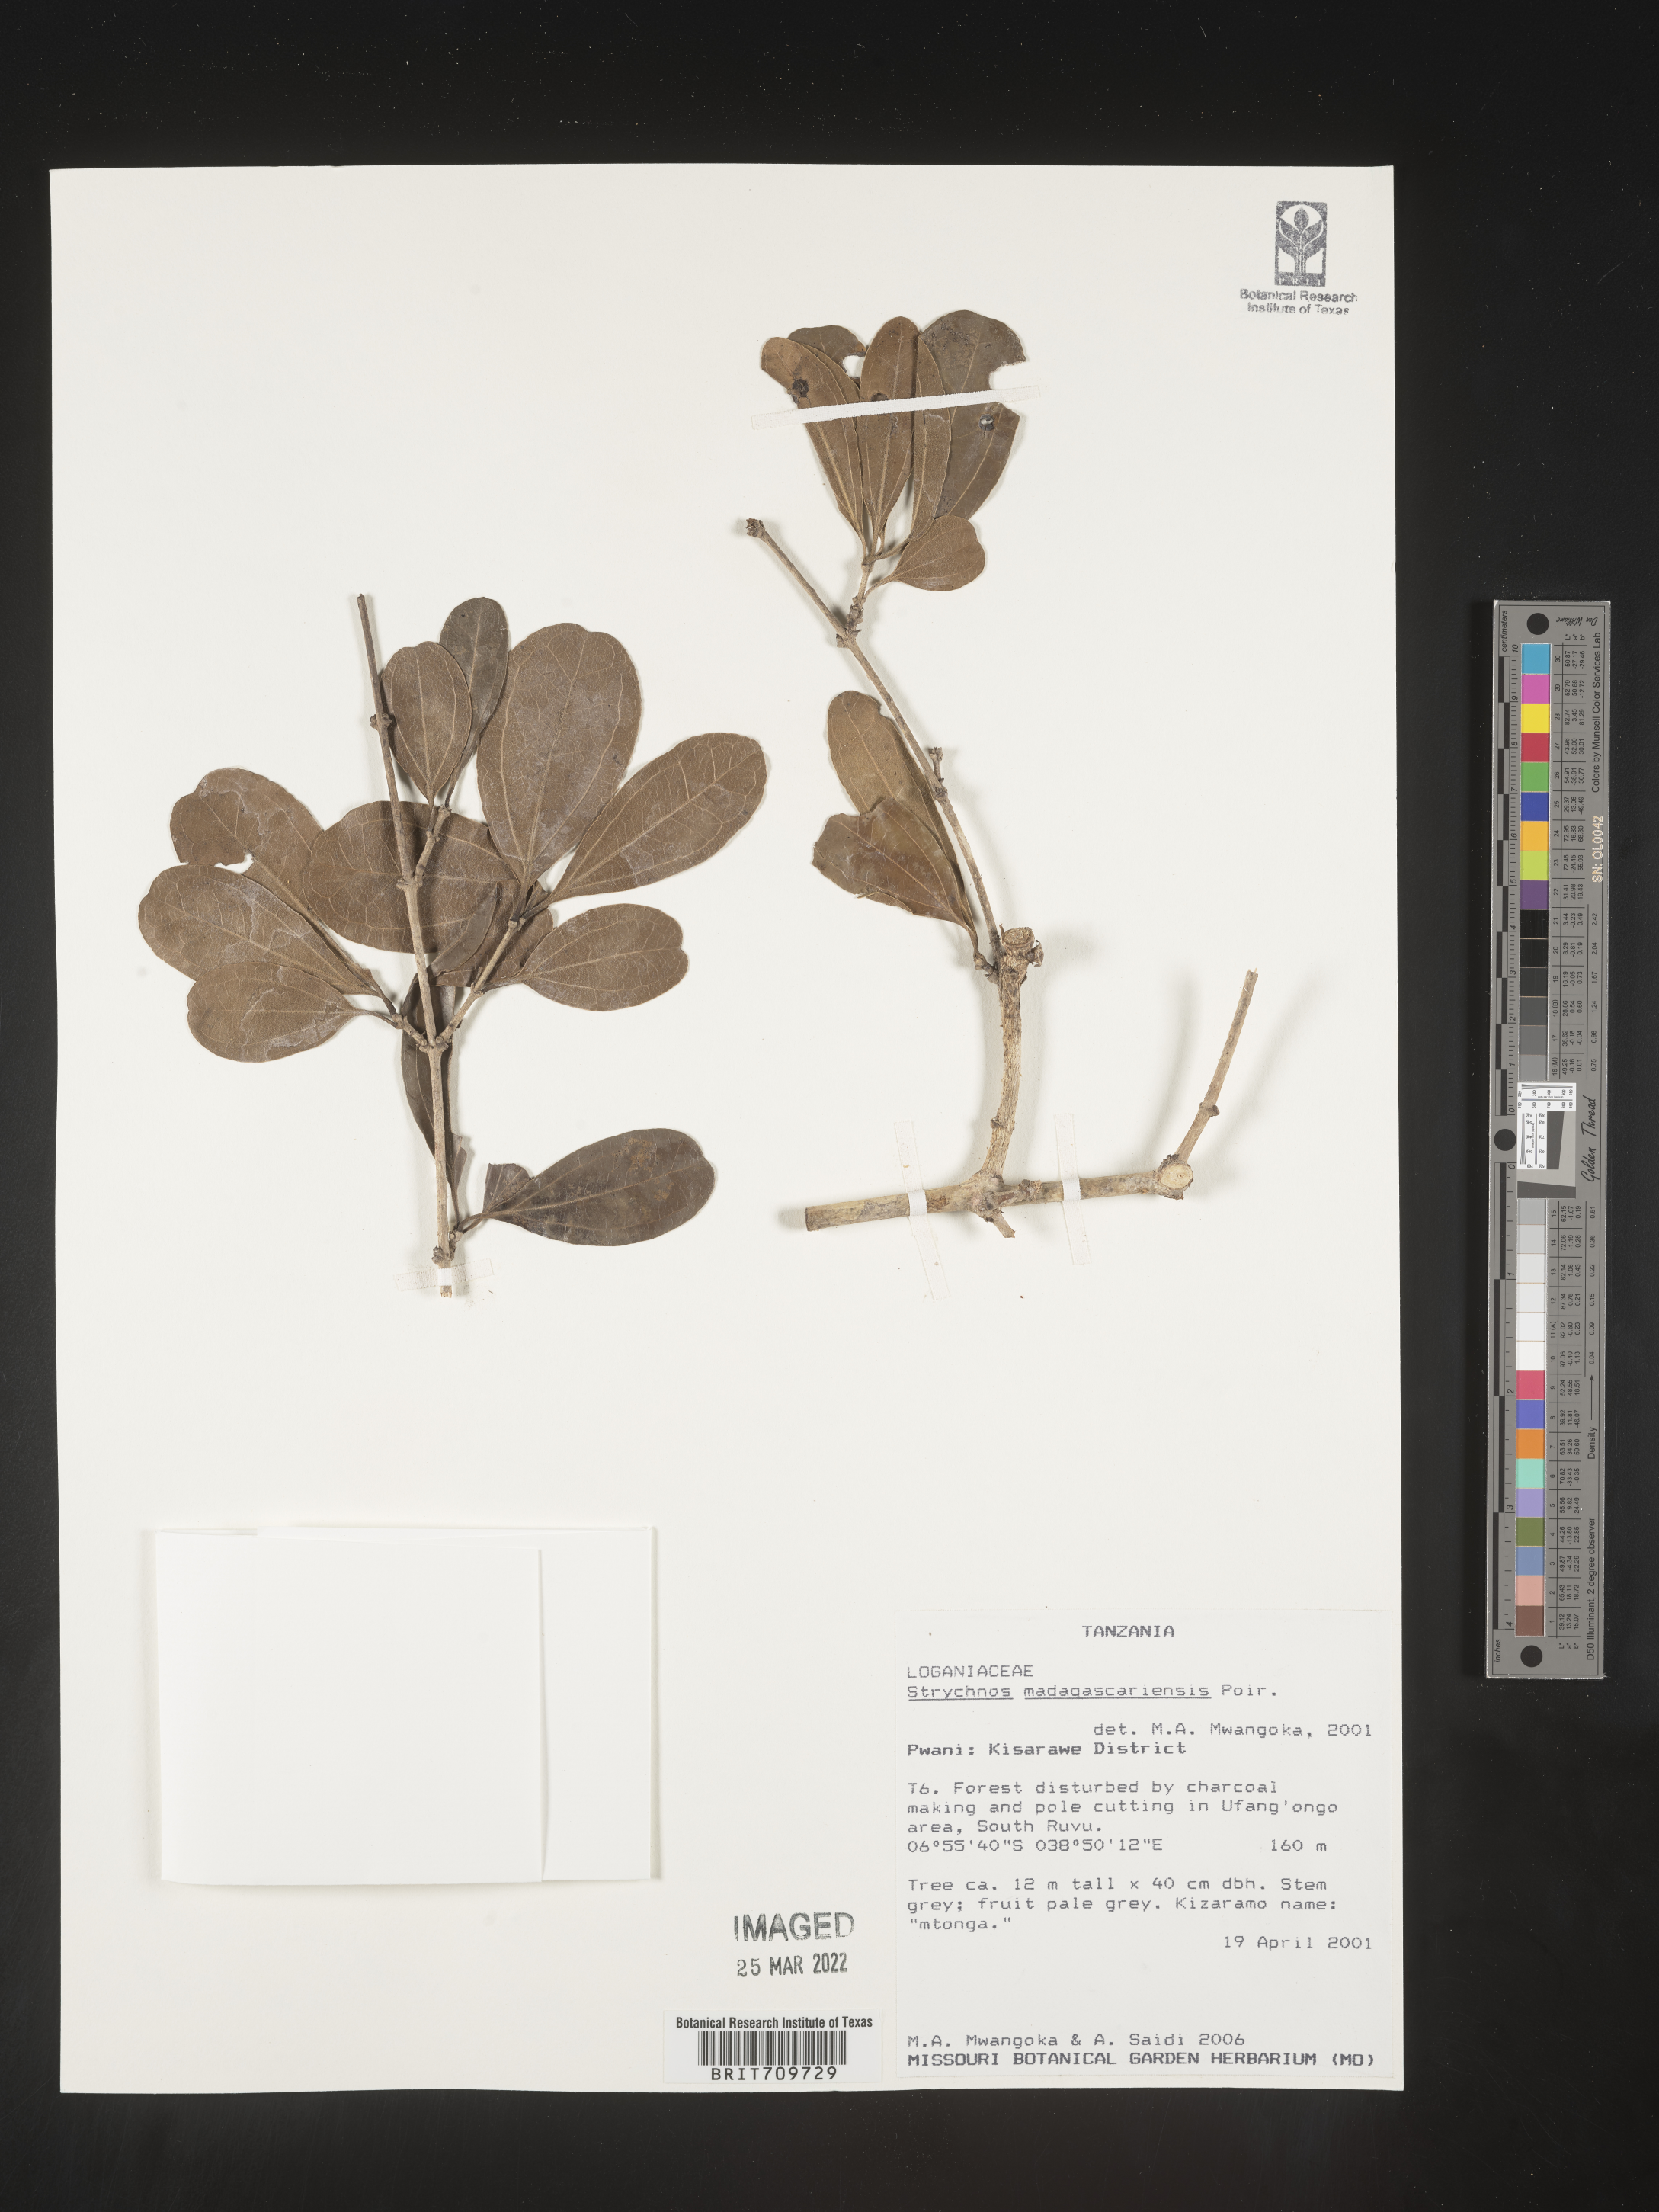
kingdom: Plantae
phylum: Tracheophyta
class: Magnoliopsida
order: Gentianales
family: Loganiaceae
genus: Strychnos
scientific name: Strychnos
